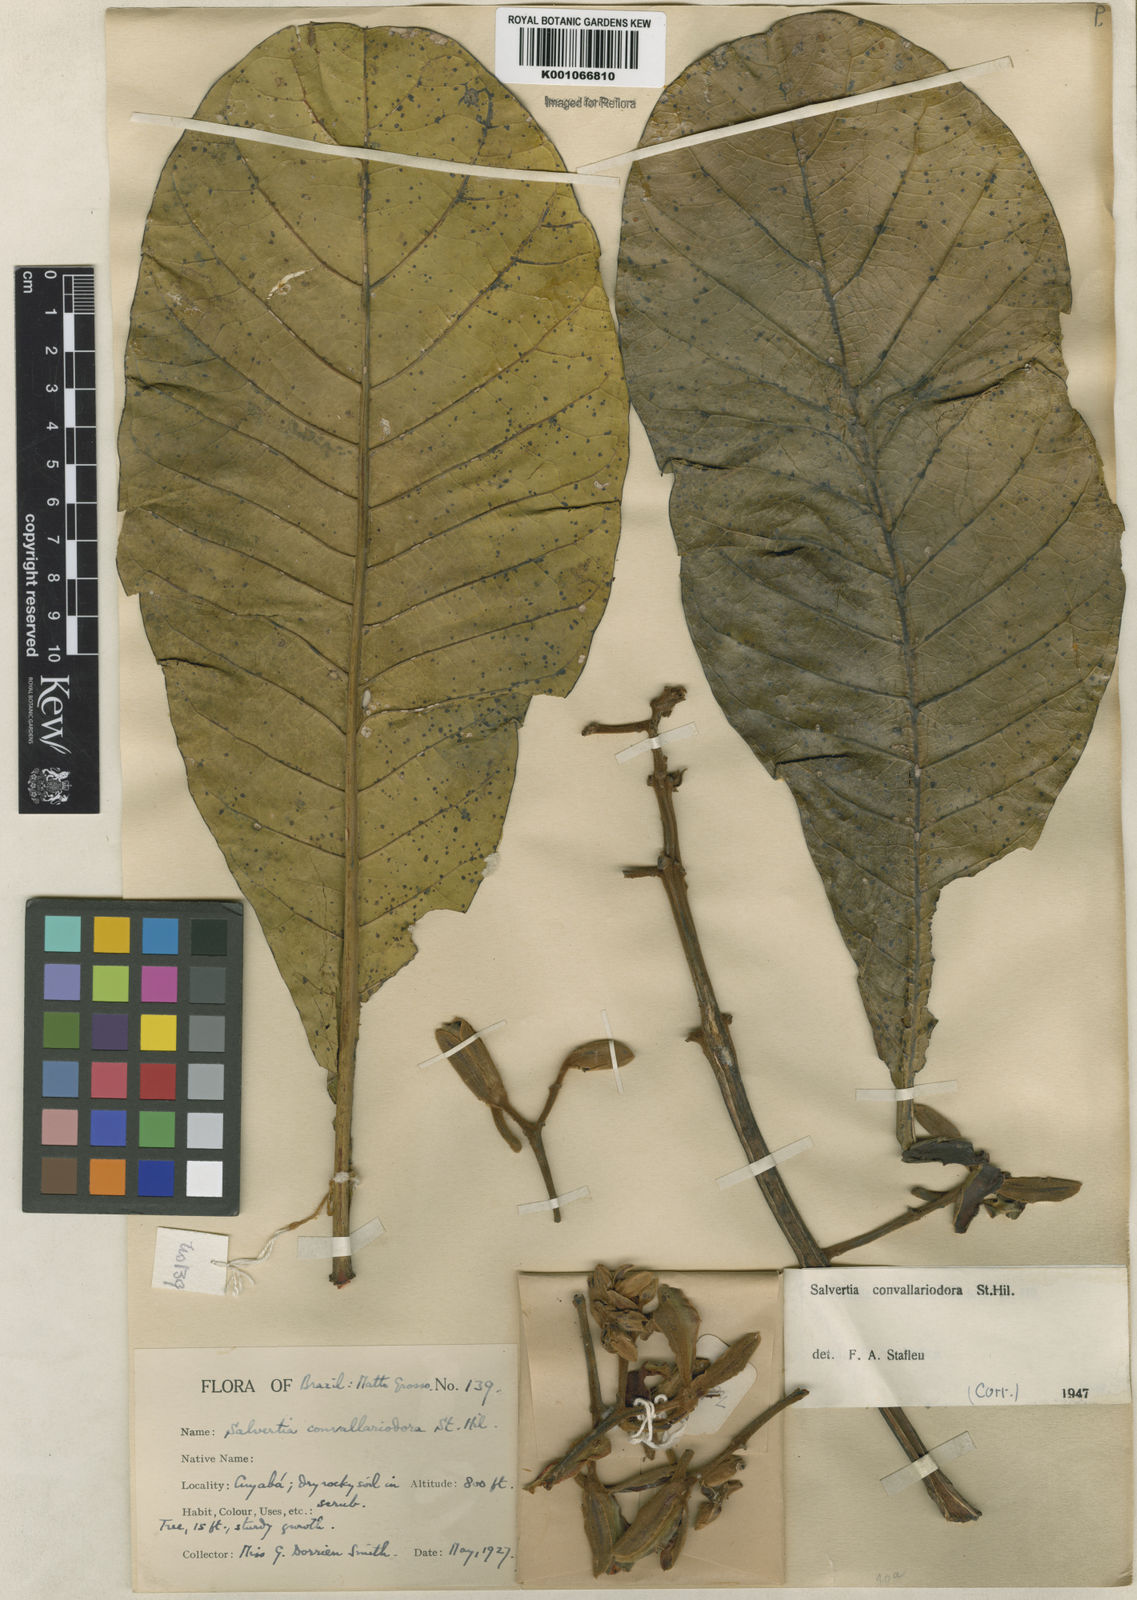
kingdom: Plantae
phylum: Tracheophyta
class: Magnoliopsida
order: Myrtales
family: Vochysiaceae
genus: Salvertia
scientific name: Salvertia convallariodora
